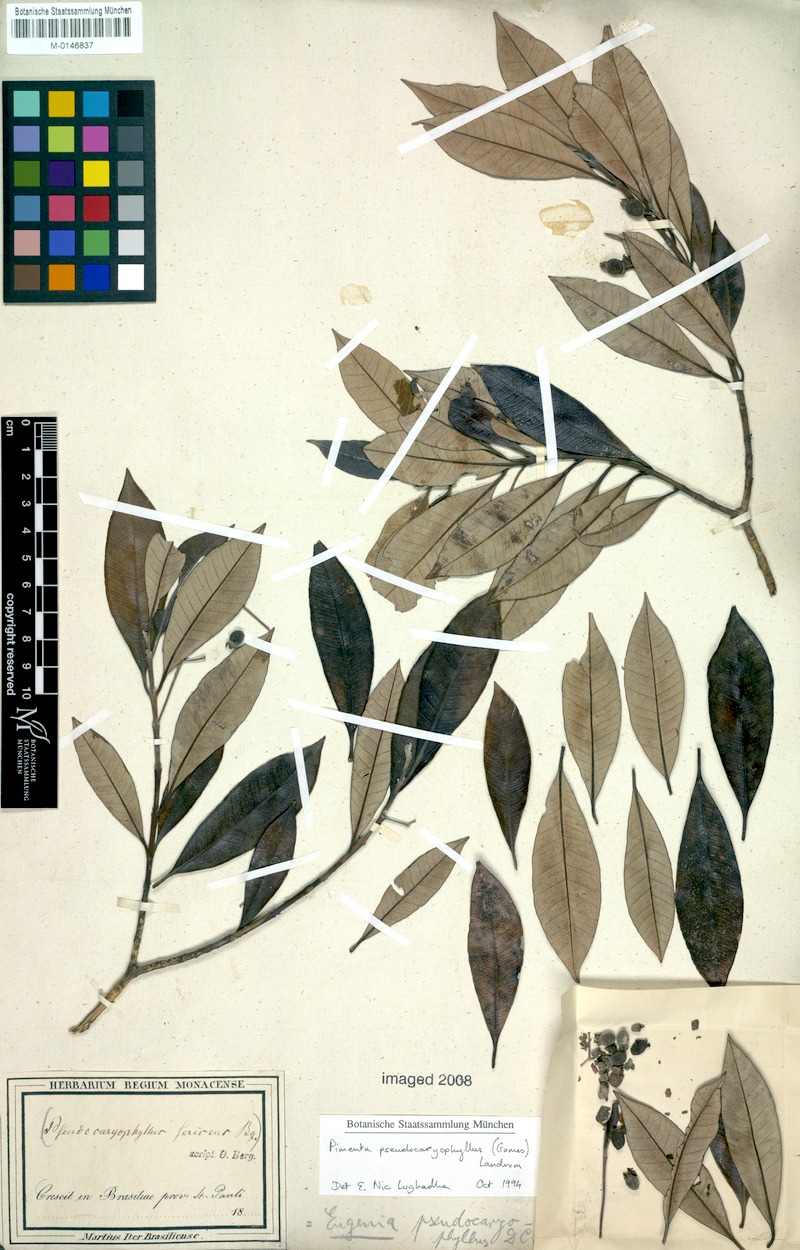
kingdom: Plantae
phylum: Tracheophyta
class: Magnoliopsida
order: Myrtales
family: Myrtaceae
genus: Pimenta
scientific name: Pimenta pseudocaryophyllus
